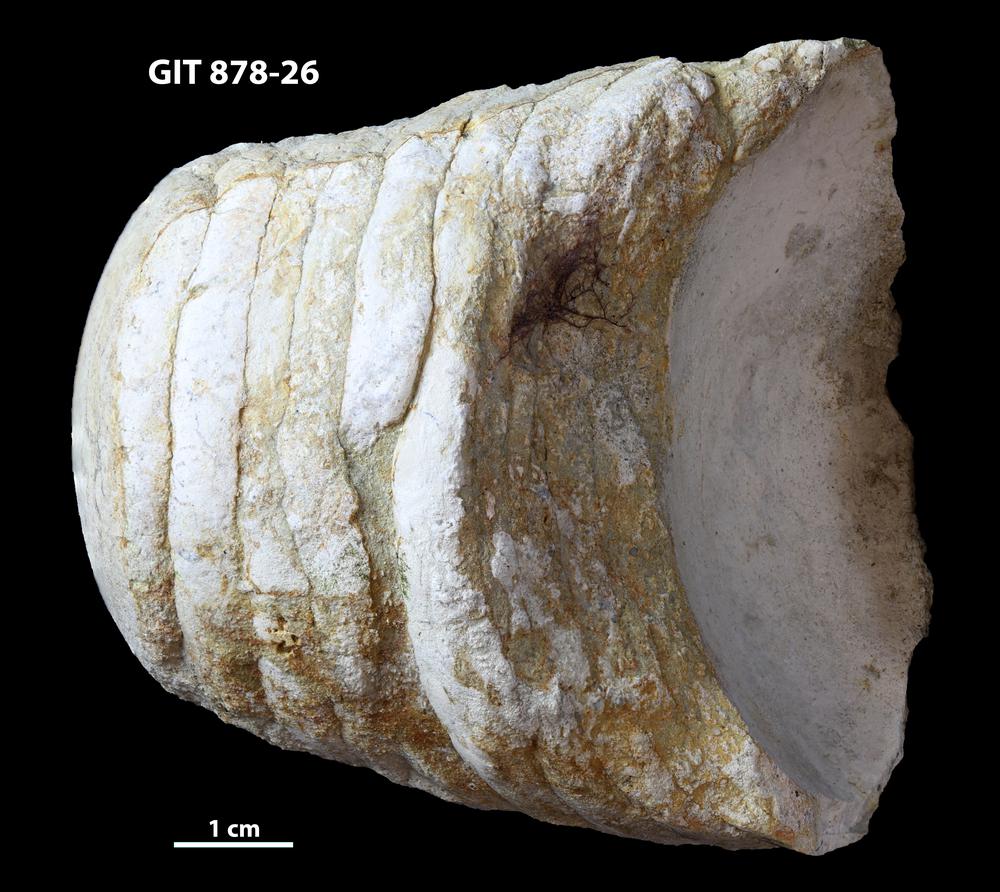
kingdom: Animalia
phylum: Mollusca
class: Cephalopoda
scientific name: Cephalopoda
